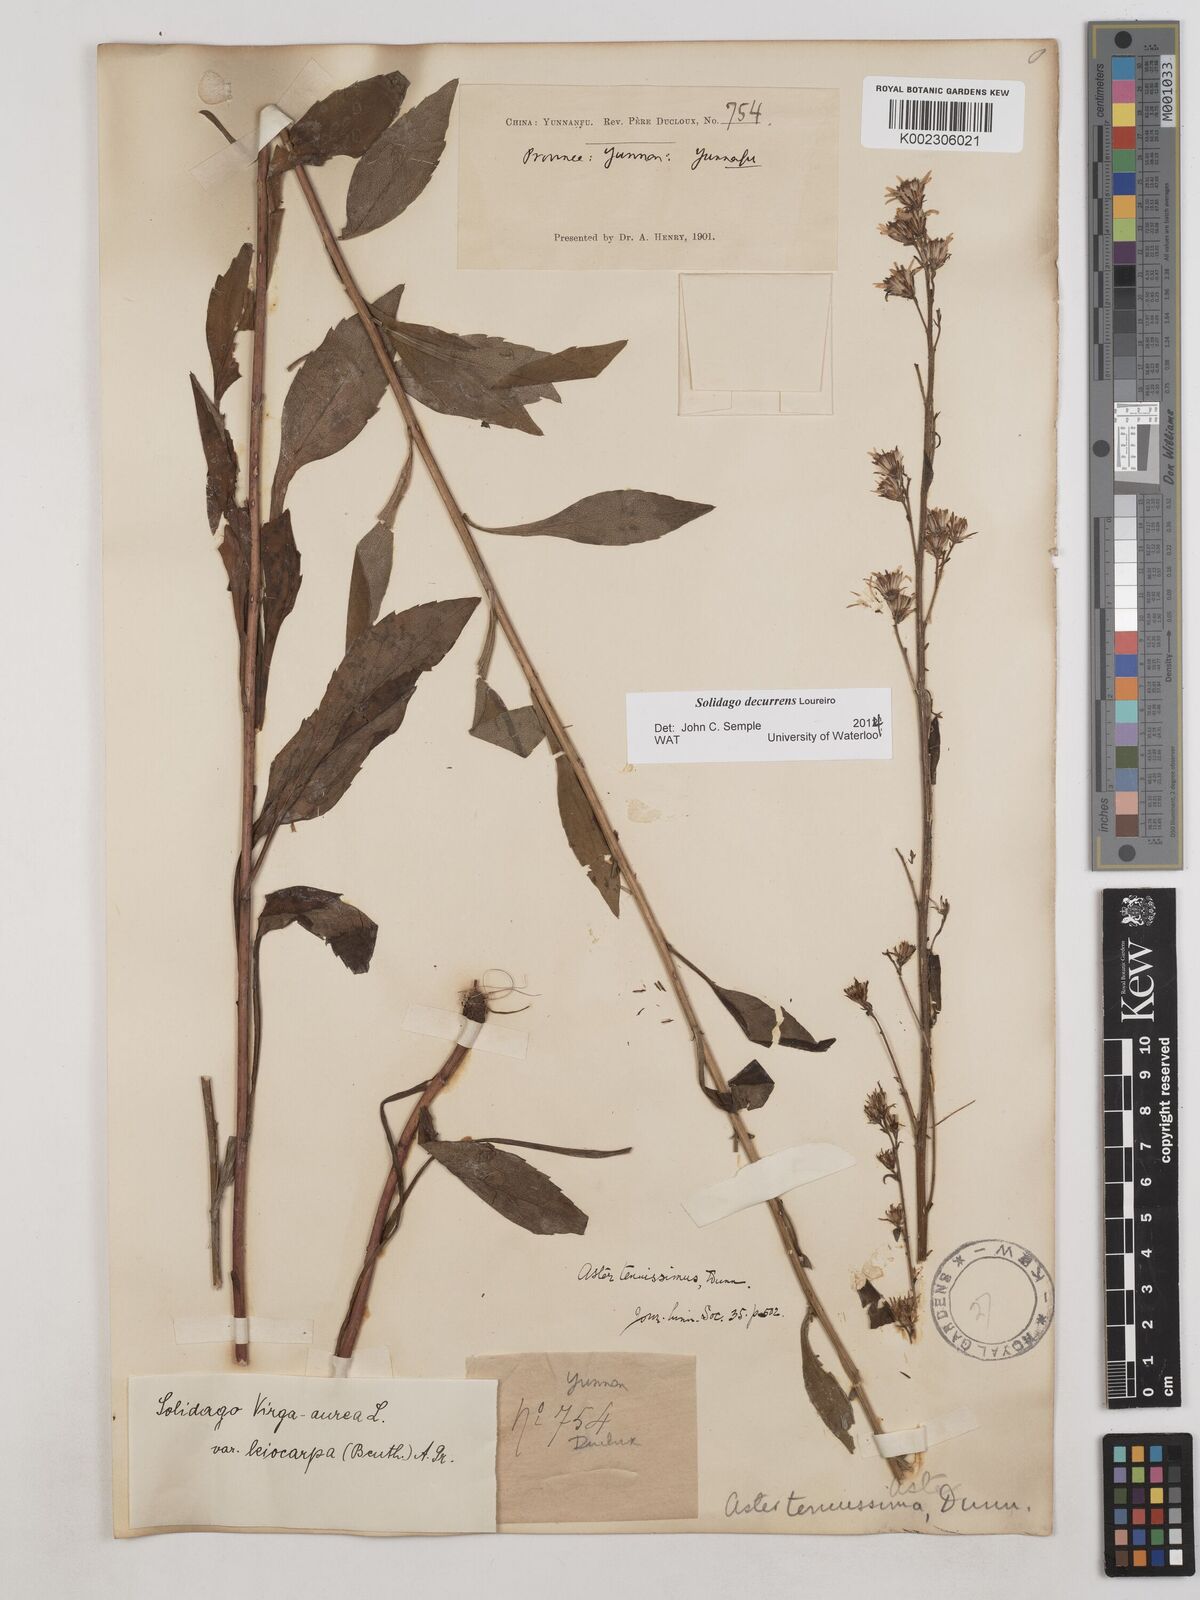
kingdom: Plantae
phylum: Tracheophyta
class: Magnoliopsida
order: Asterales
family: Asteraceae
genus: Solidago
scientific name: Solidago decurrens
